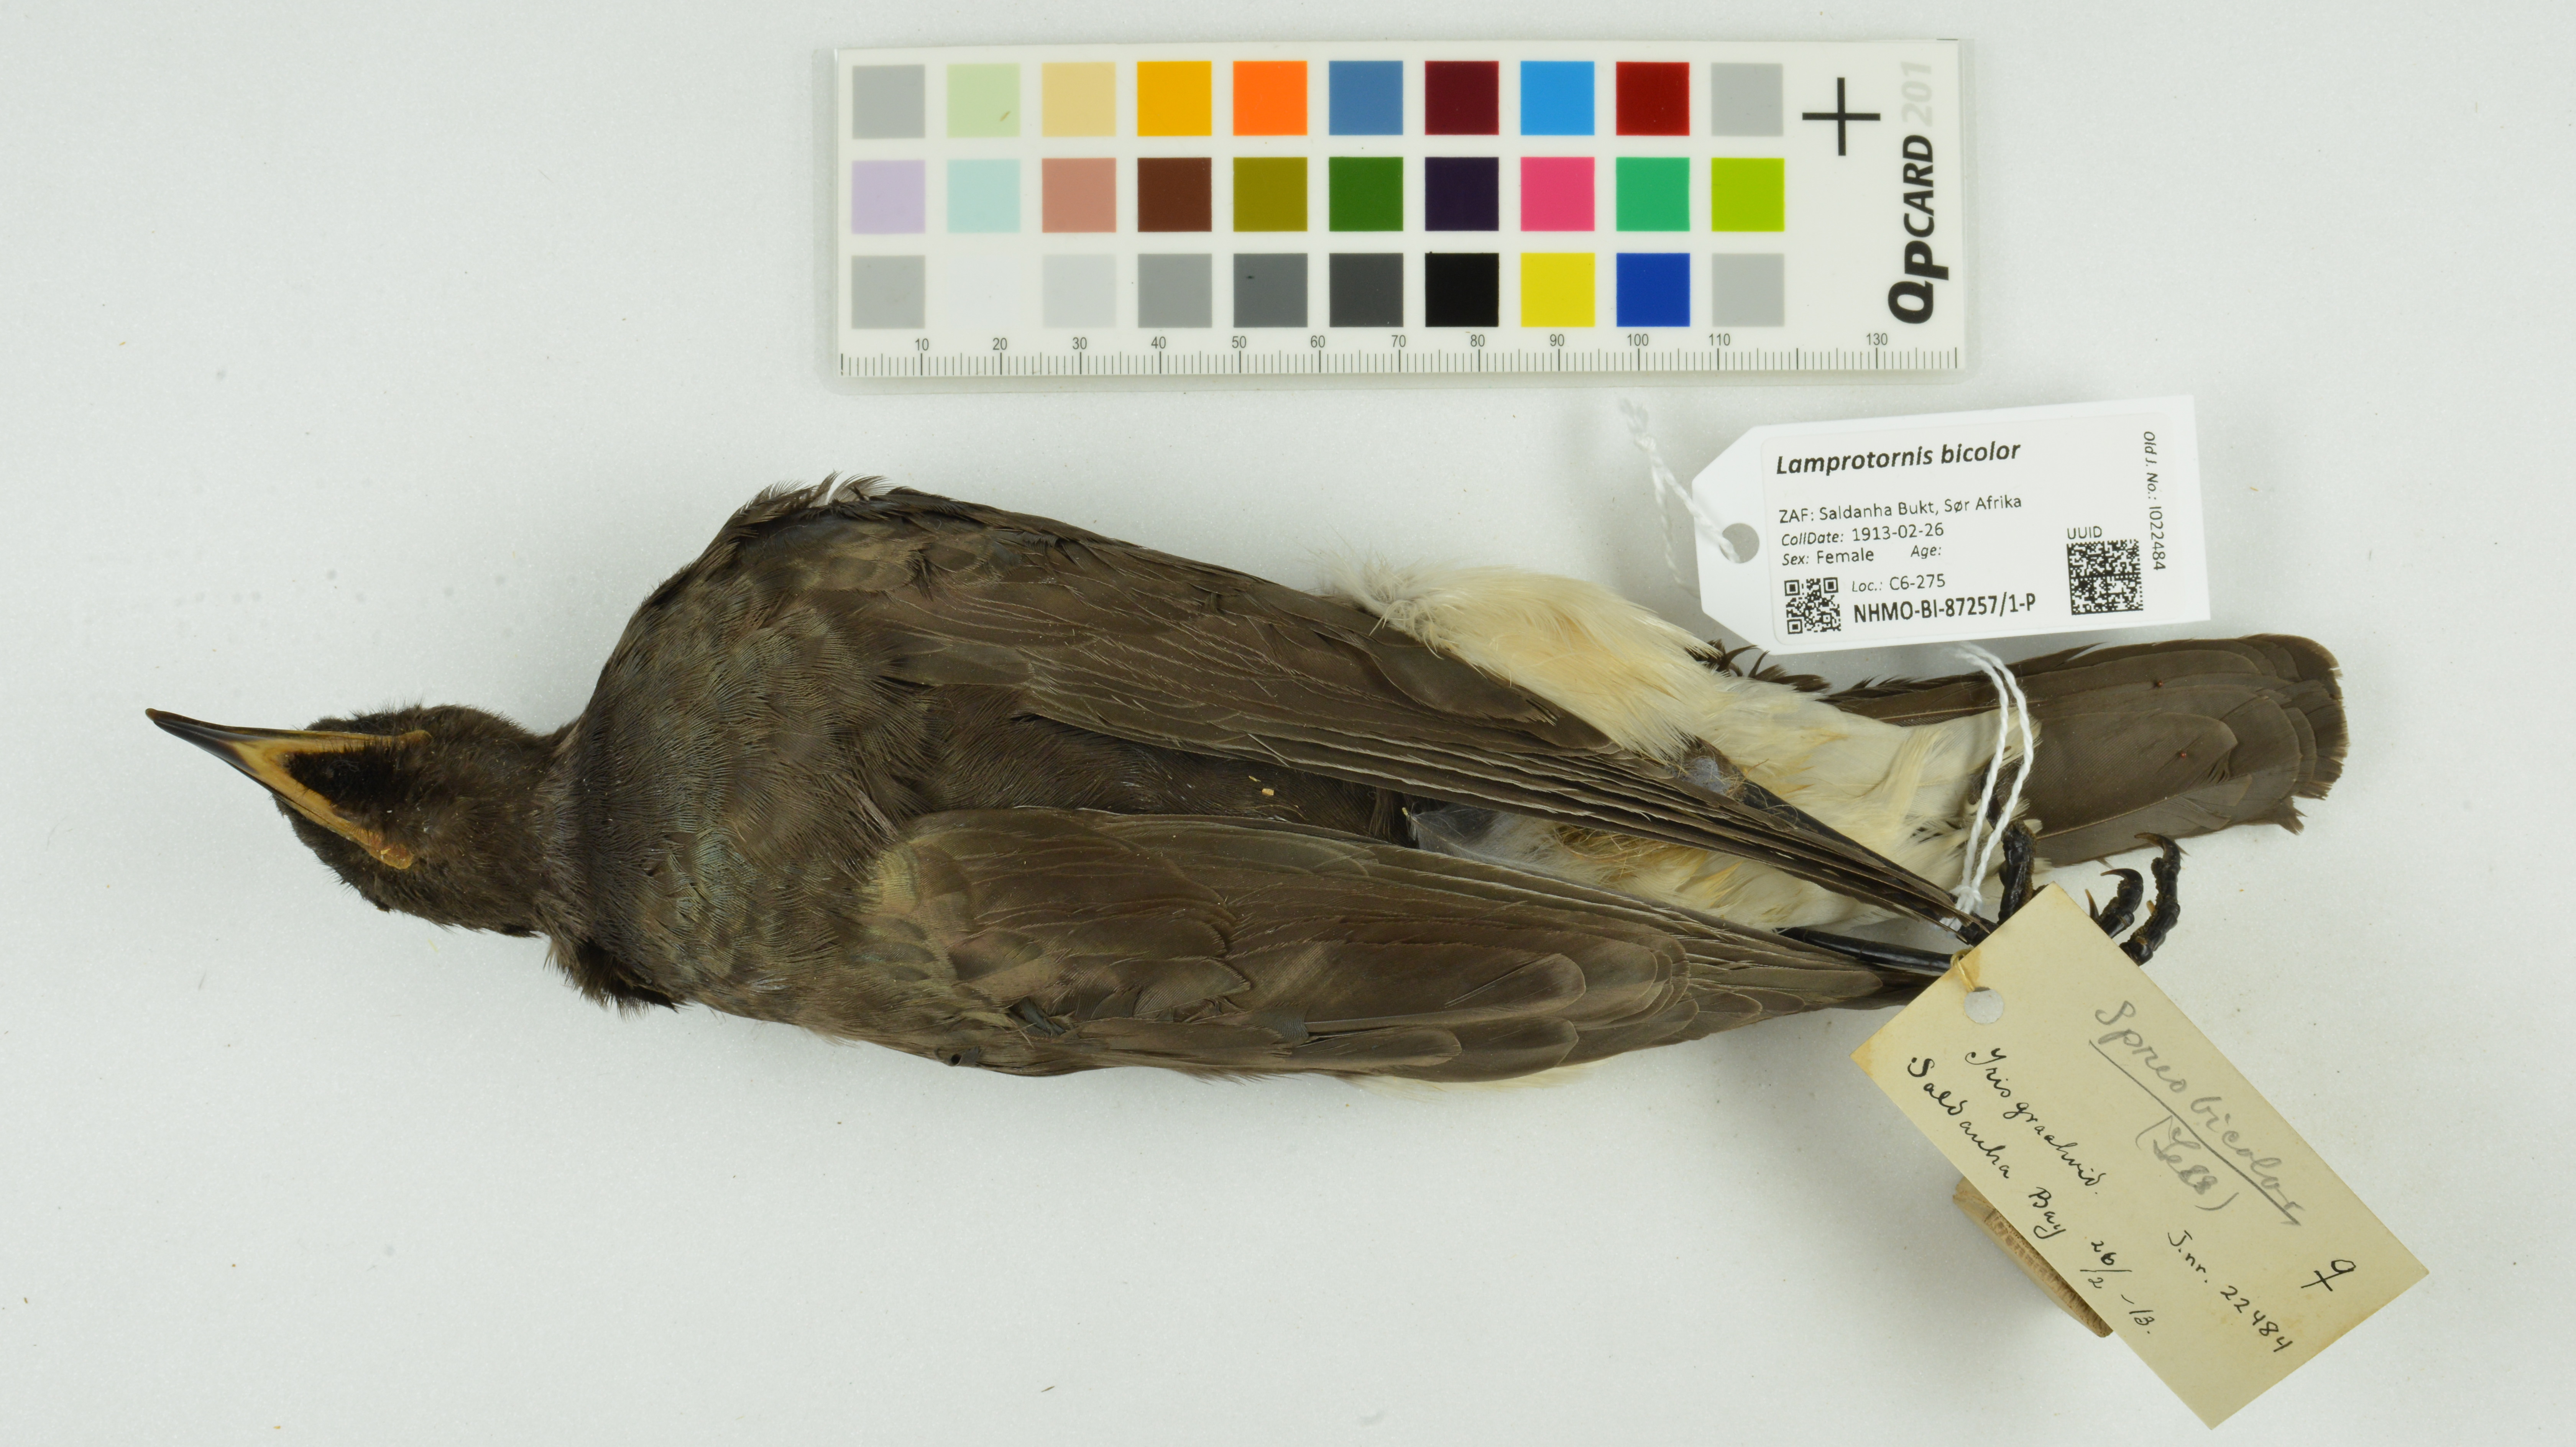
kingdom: Animalia
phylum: Chordata
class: Aves
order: Passeriformes
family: Sturnidae
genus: Lamprotornis
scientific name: Lamprotornis bicolor
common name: Pied starling
